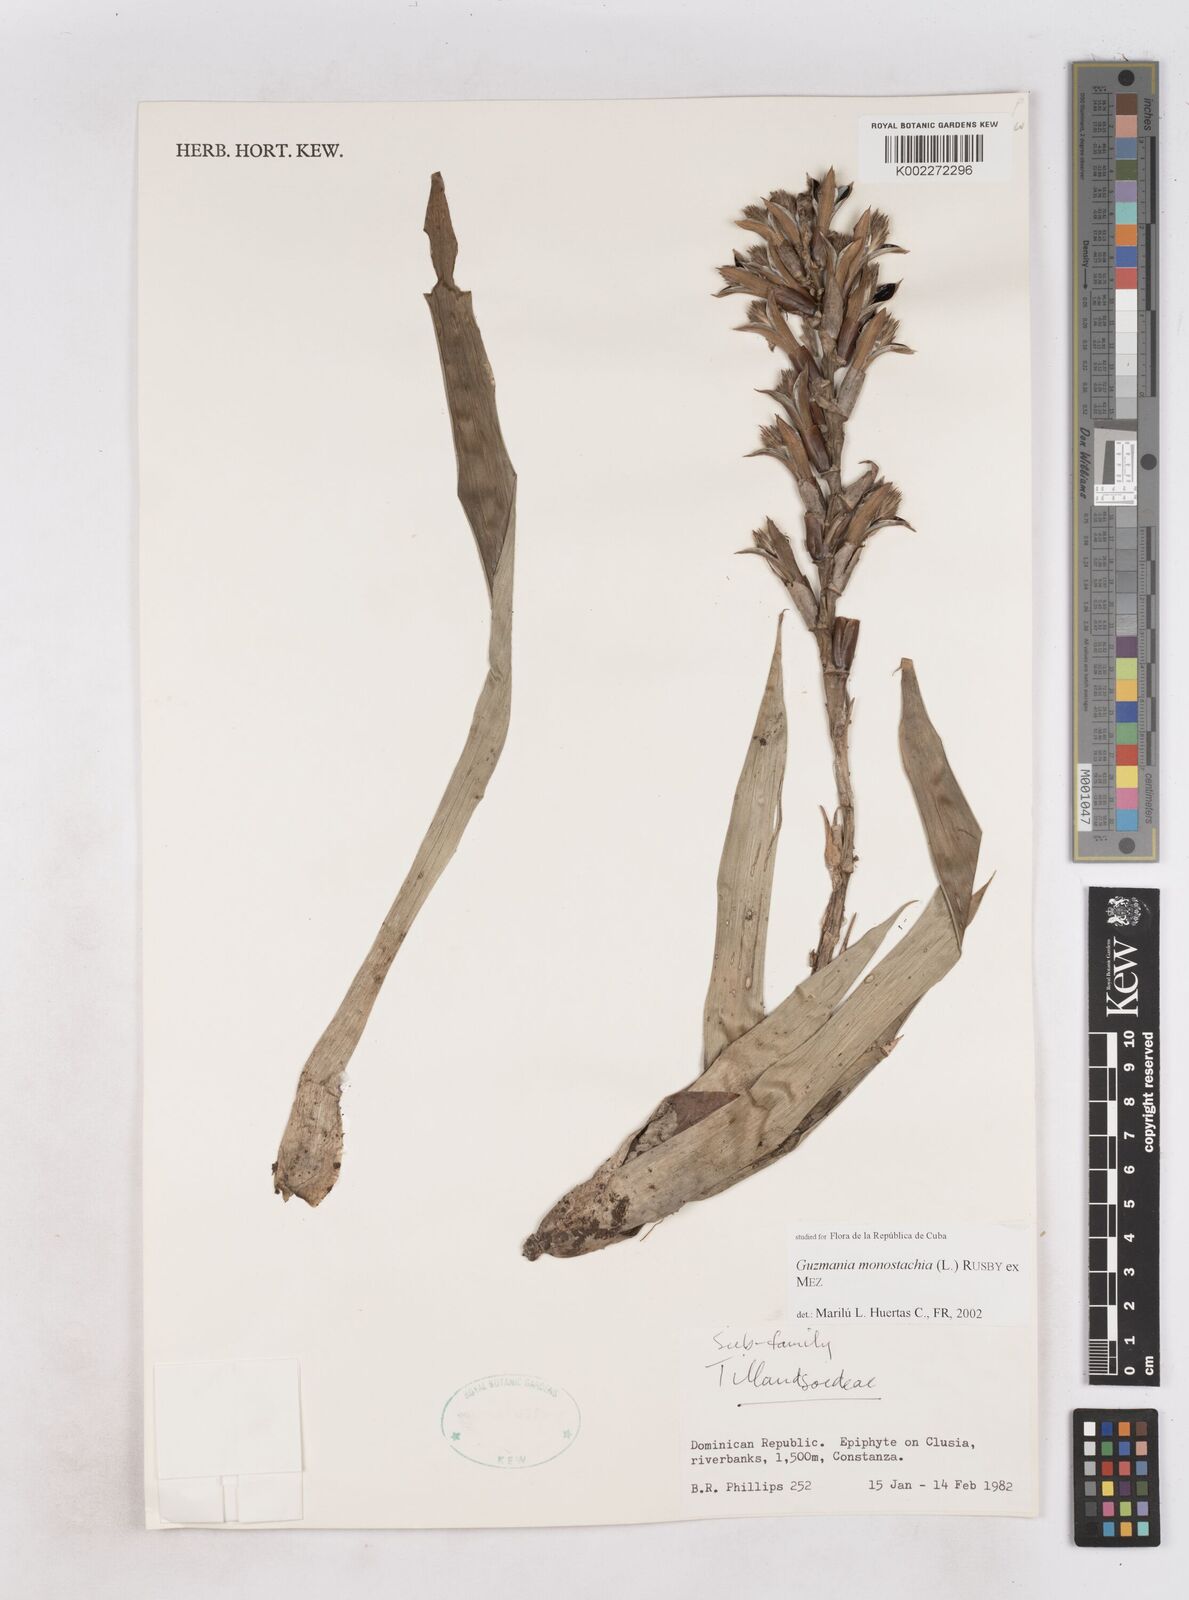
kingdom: Plantae
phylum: Tracheophyta
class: Liliopsida
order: Poales
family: Bromeliaceae
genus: Guzmania
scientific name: Guzmania monostachia
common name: West indian tufted airplant
